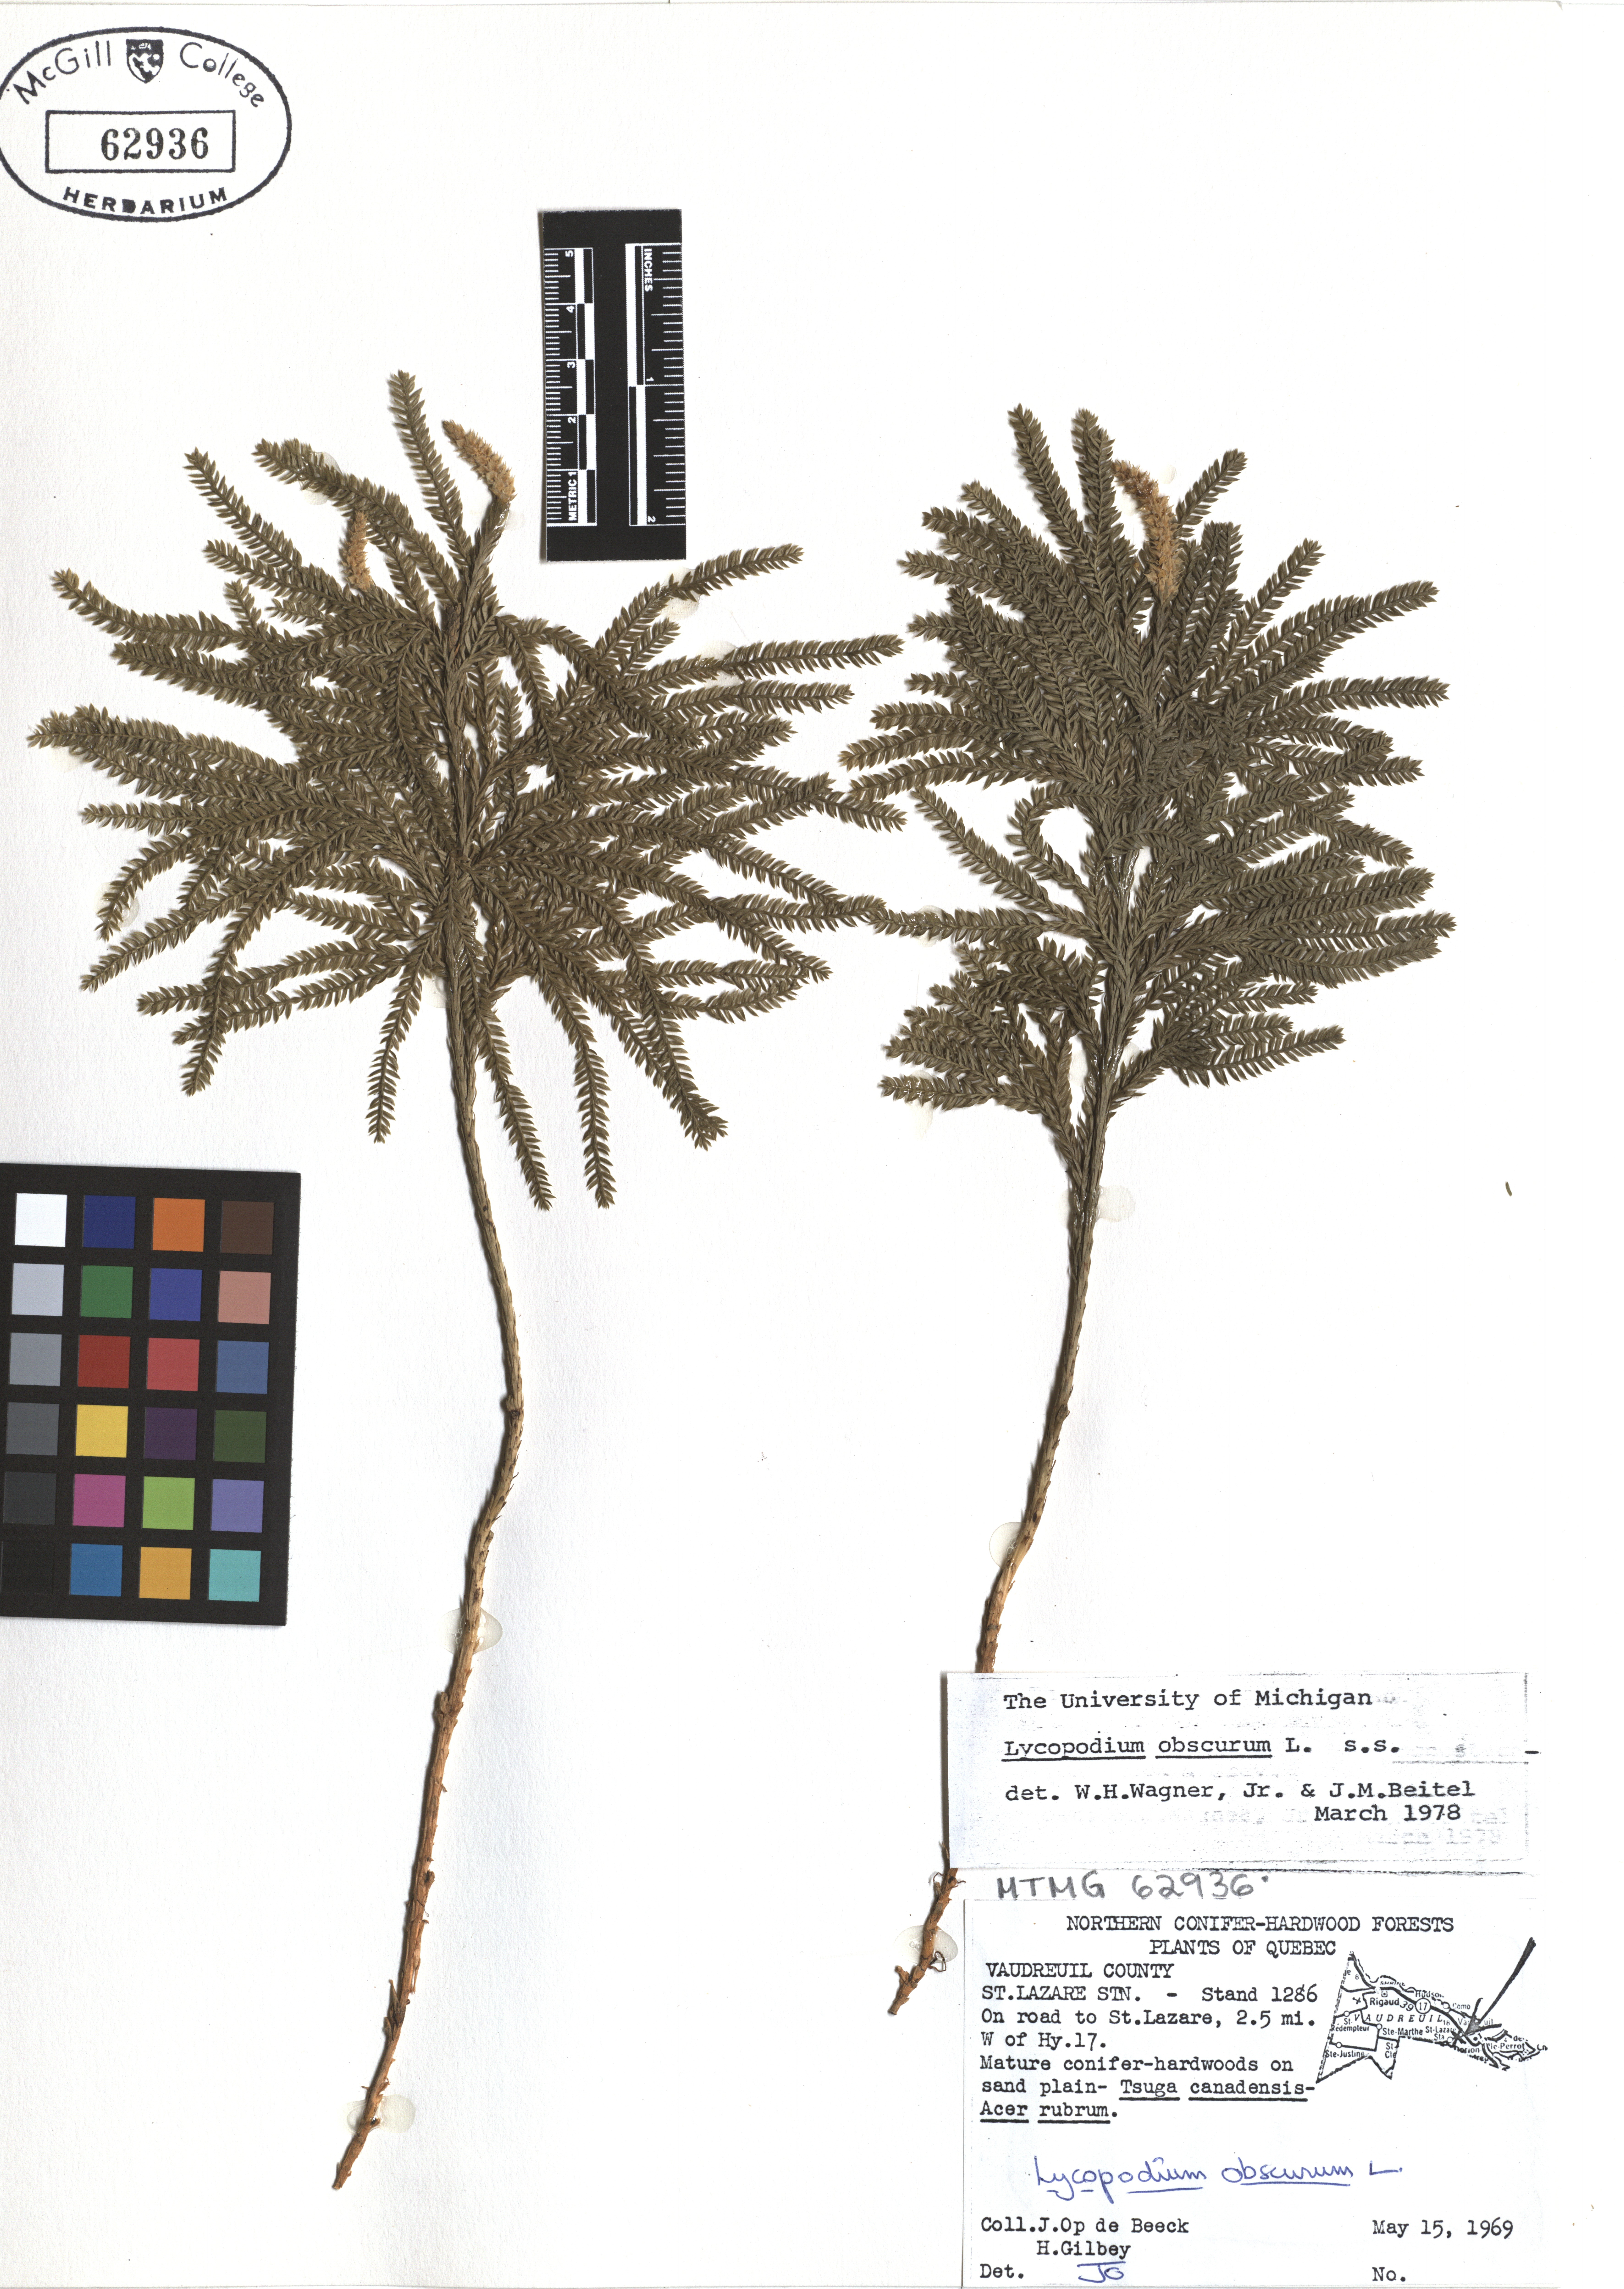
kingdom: Plantae
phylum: Tracheophyta
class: Lycopodiopsida
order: Lycopodiales
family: Lycopodiaceae
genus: Dendrolycopodium
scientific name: Dendrolycopodium obscurum
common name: Common ground-pine
